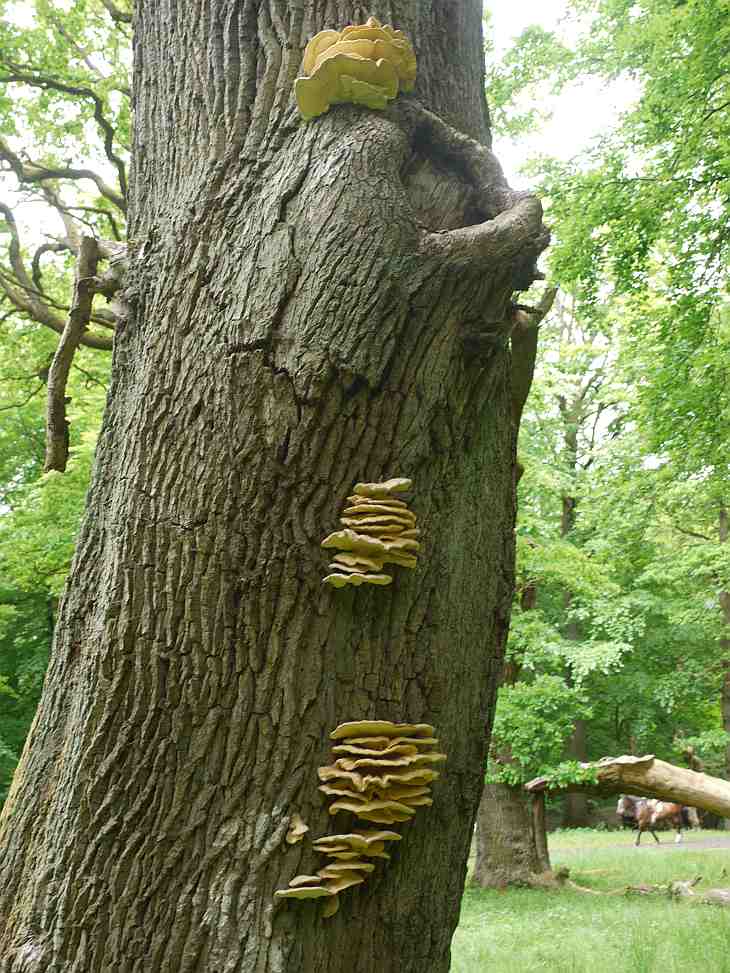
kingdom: Fungi
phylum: Basidiomycota
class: Agaricomycetes
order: Polyporales
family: Laetiporaceae
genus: Laetiporus
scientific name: Laetiporus sulphureus
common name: svovlporesvamp
